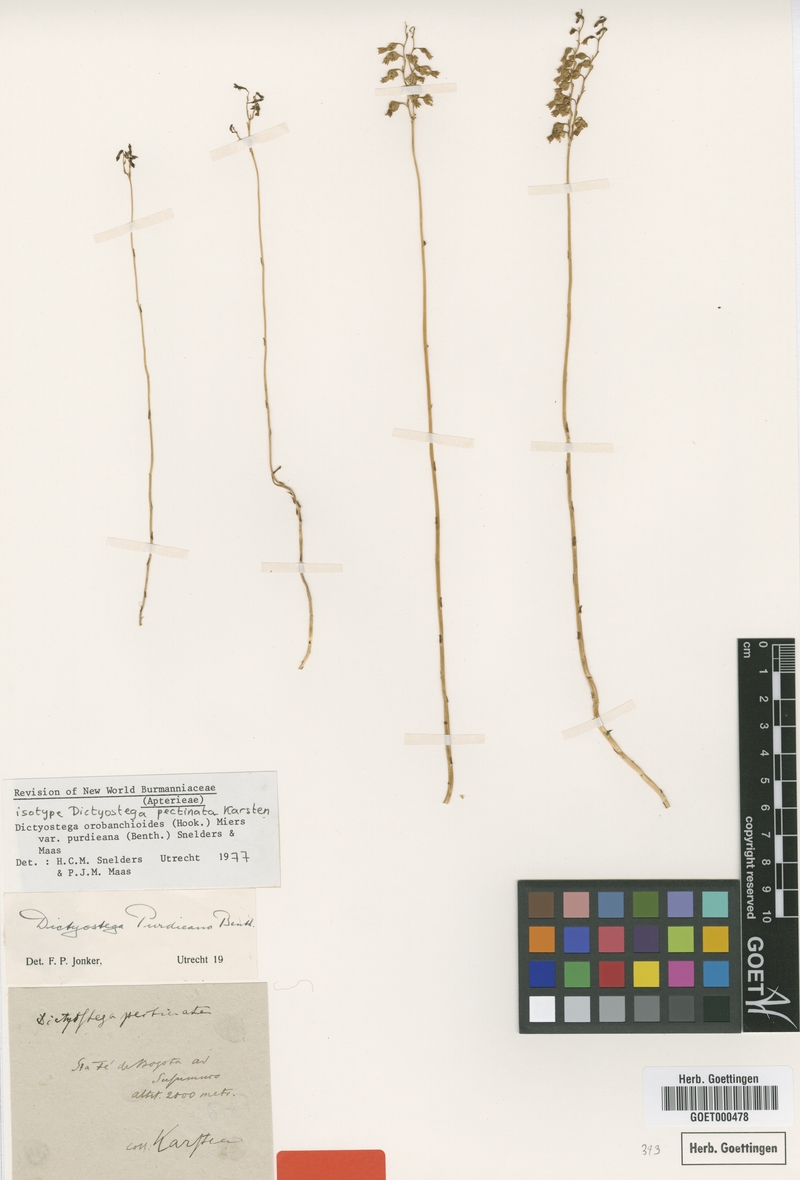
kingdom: Plantae
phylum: Tracheophyta
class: Liliopsida
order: Dioscoreales
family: Burmanniaceae
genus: Dictyostega
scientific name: Dictyostega orobanchoides
